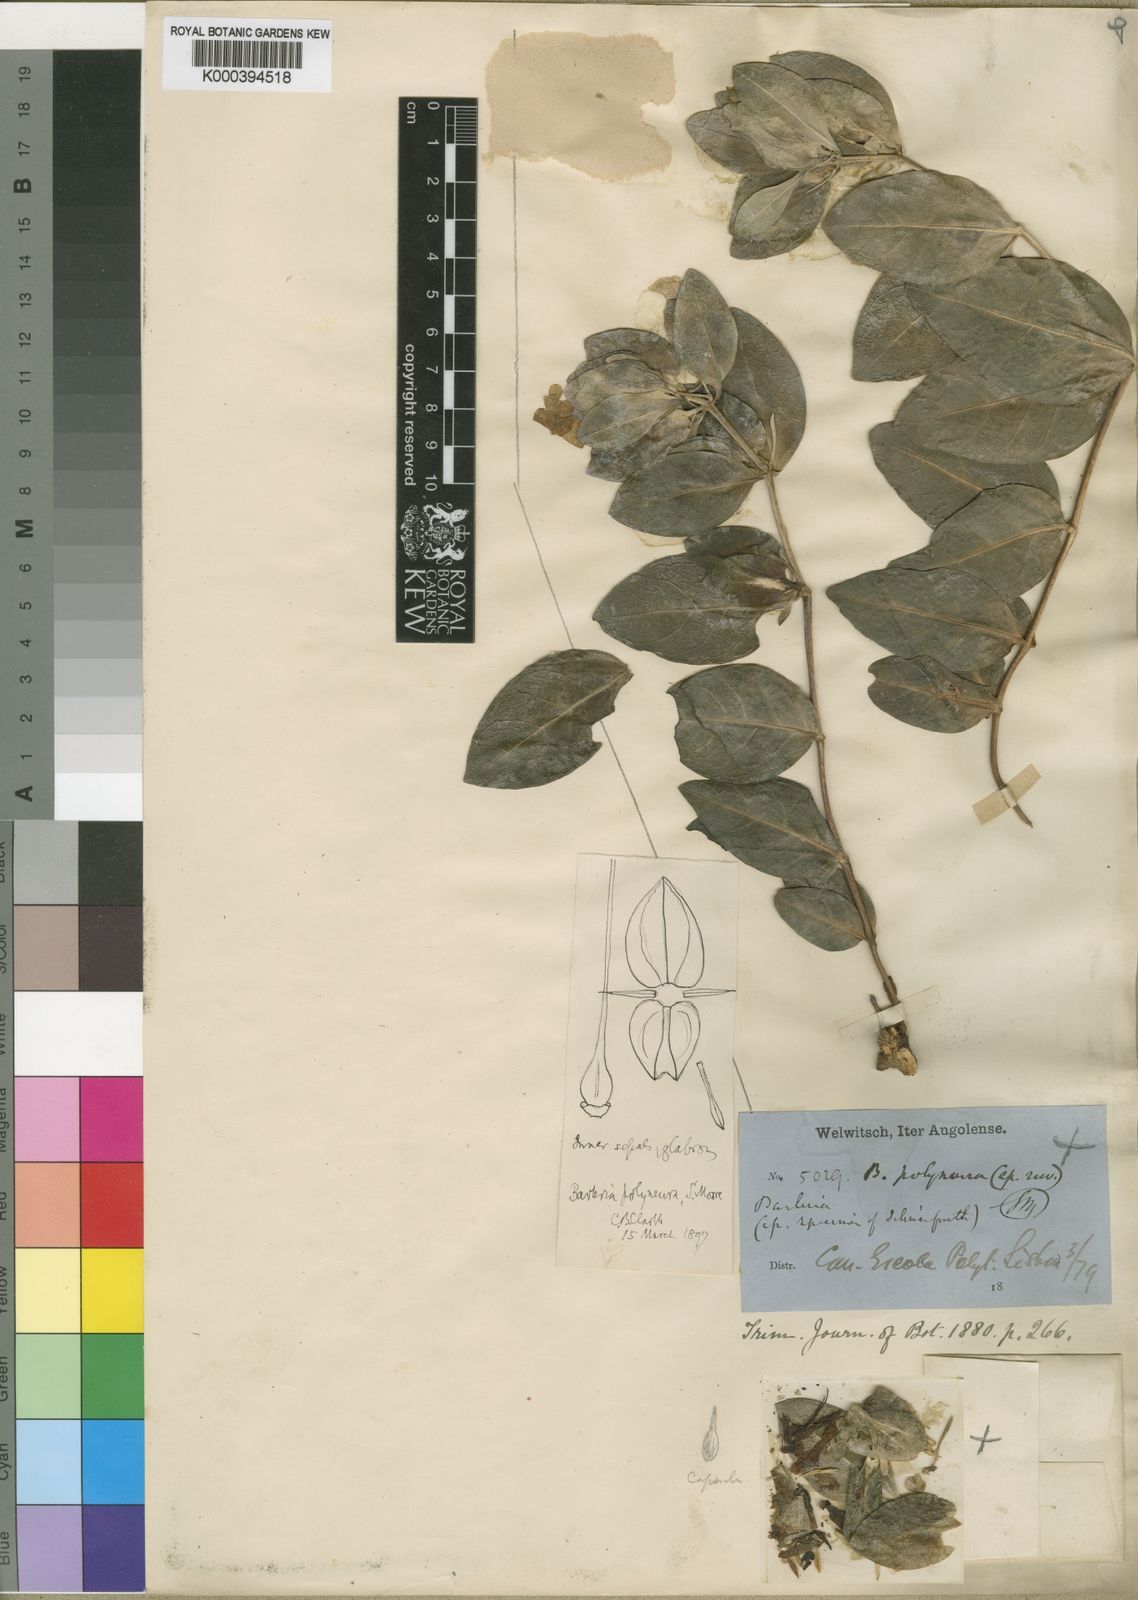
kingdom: Plantae
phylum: Tracheophyta
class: Magnoliopsida
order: Lamiales
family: Acanthaceae
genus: Barleria
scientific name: Barleria polyneura
